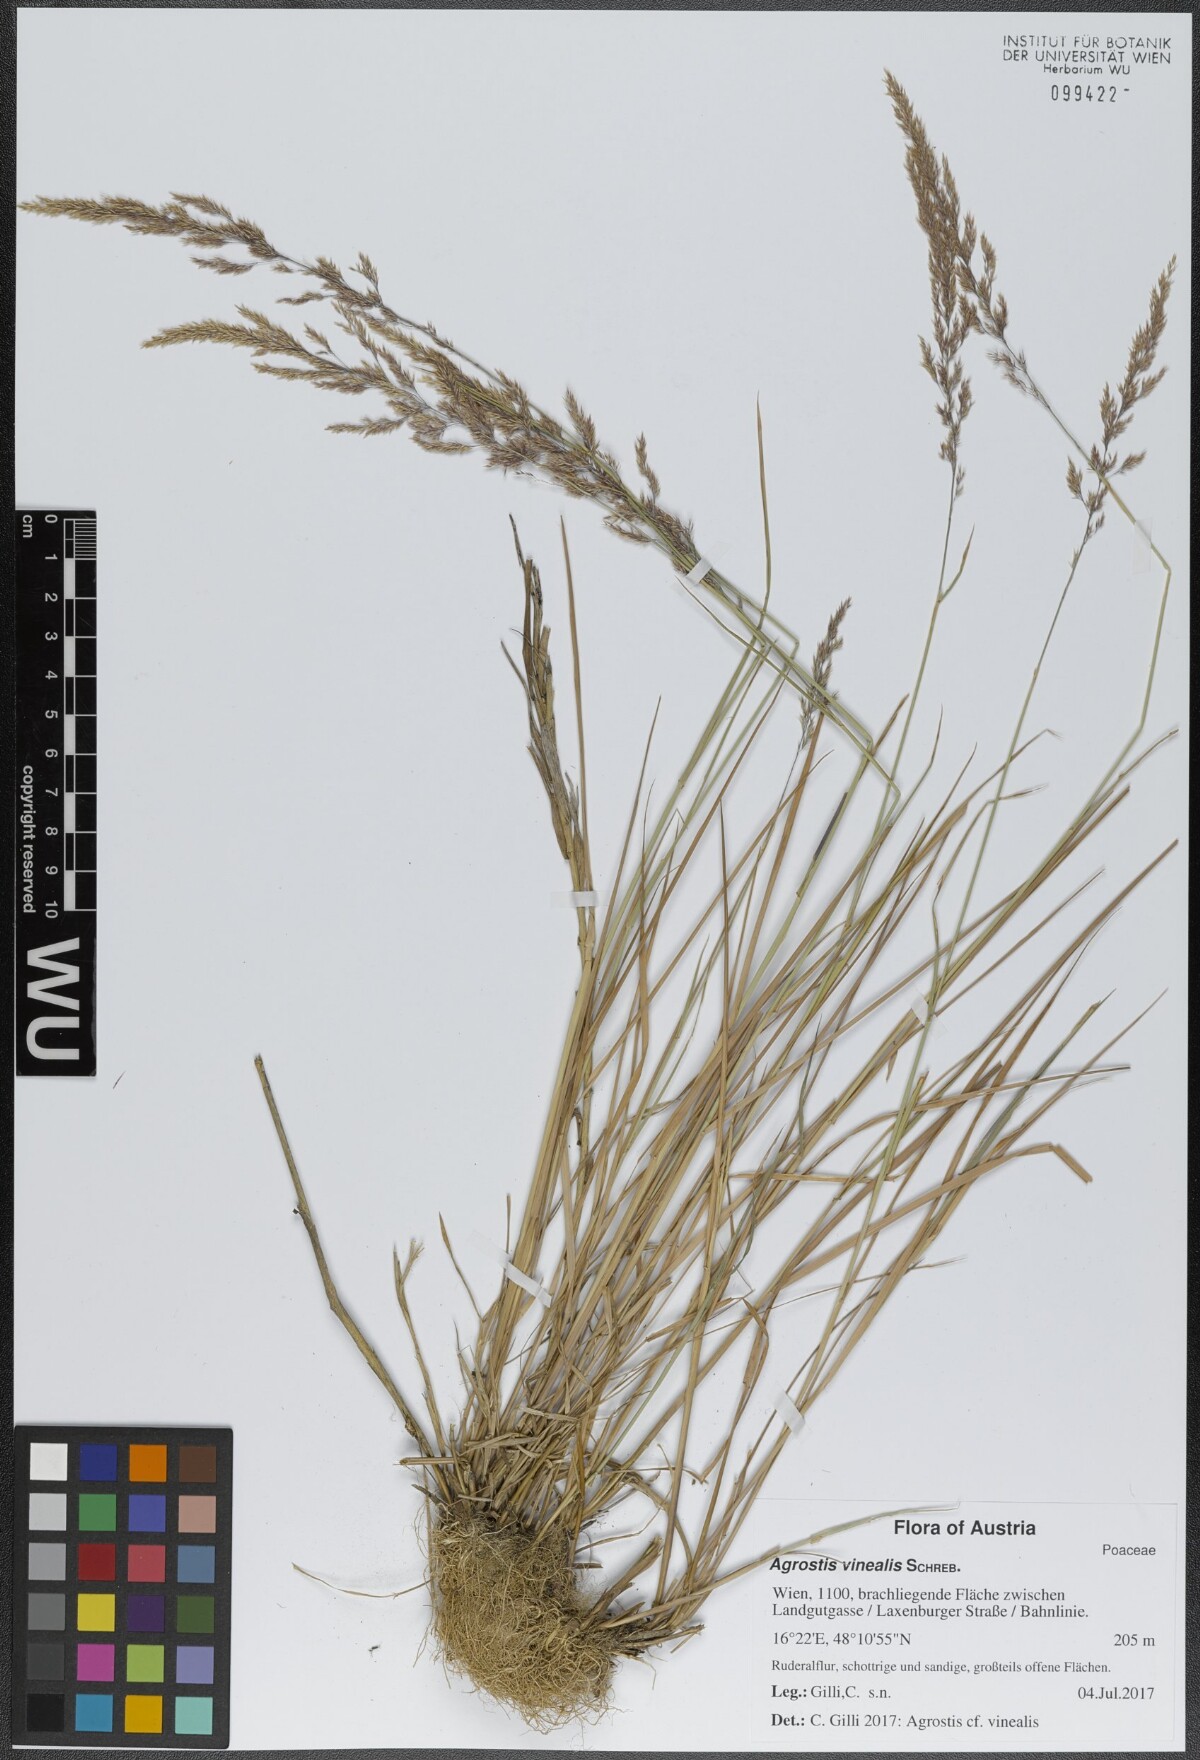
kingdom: Plantae
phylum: Tracheophyta
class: Liliopsida
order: Poales
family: Poaceae
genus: Agrostis
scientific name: Agrostis vinealis
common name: Brown bent
